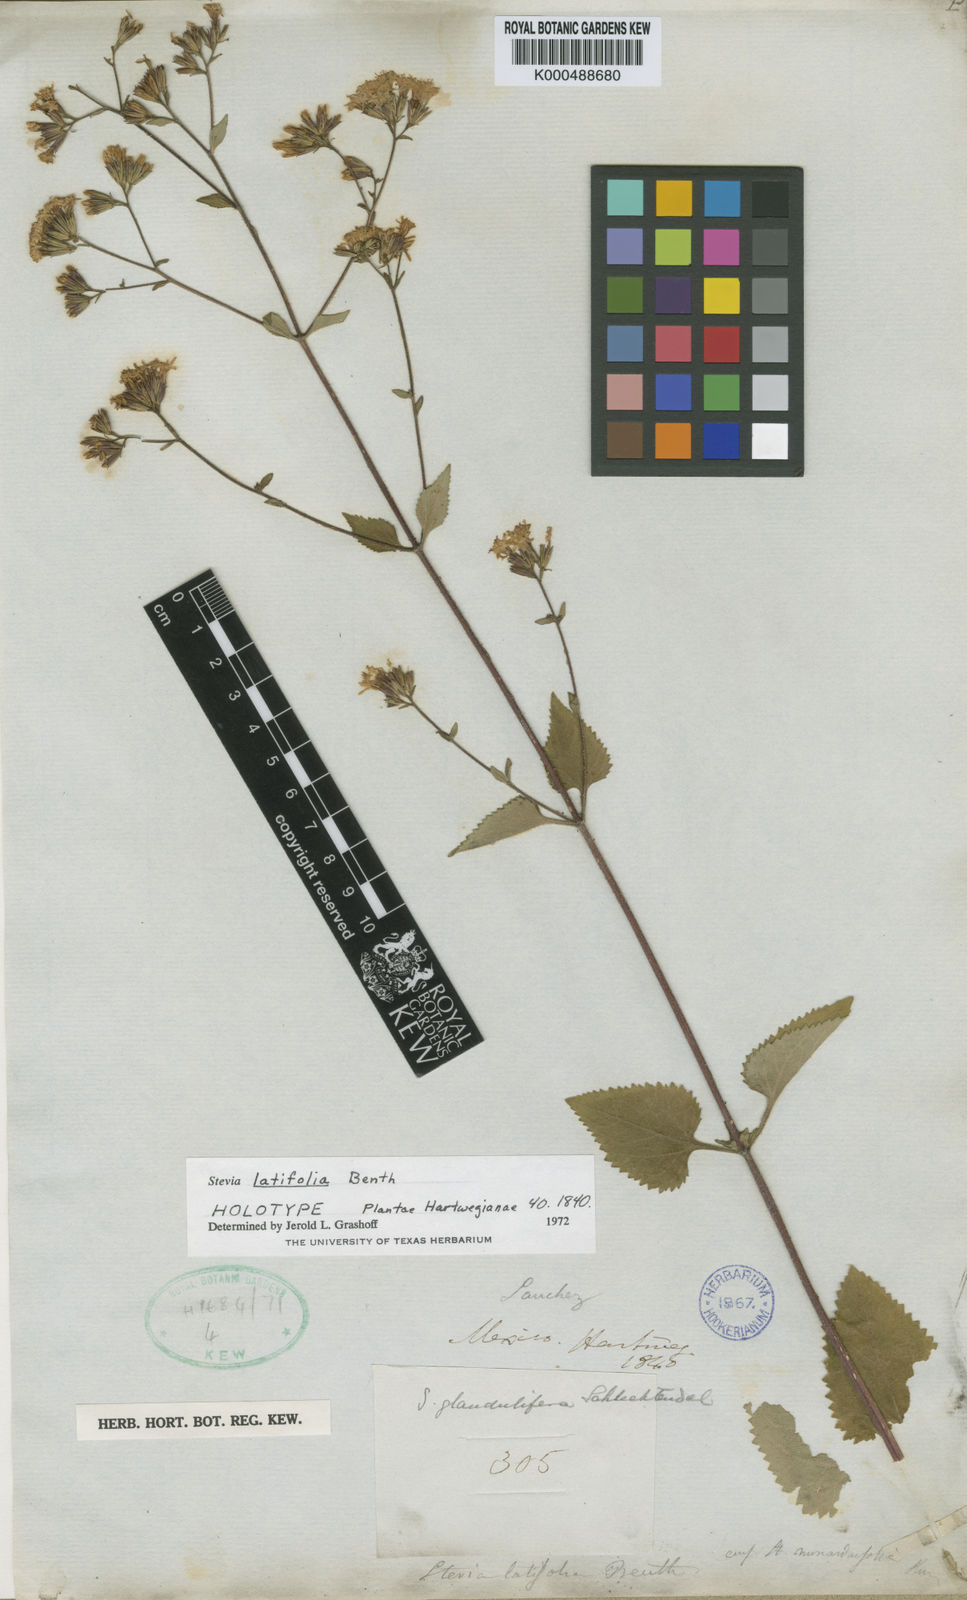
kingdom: Plantae
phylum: Tracheophyta
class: Magnoliopsida
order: Asterales
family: Asteraceae
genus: Stevia
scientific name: Stevia latifolia
